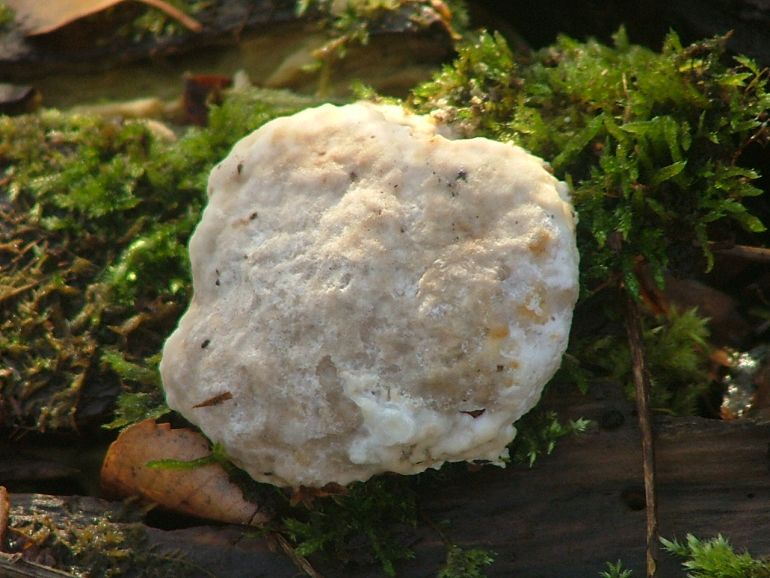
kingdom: Fungi
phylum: Basidiomycota
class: Agaricomycetes
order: Polyporales
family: Polyporaceae
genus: Trametes
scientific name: Trametes suaveolens
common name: vellugtende læderporesvamp
